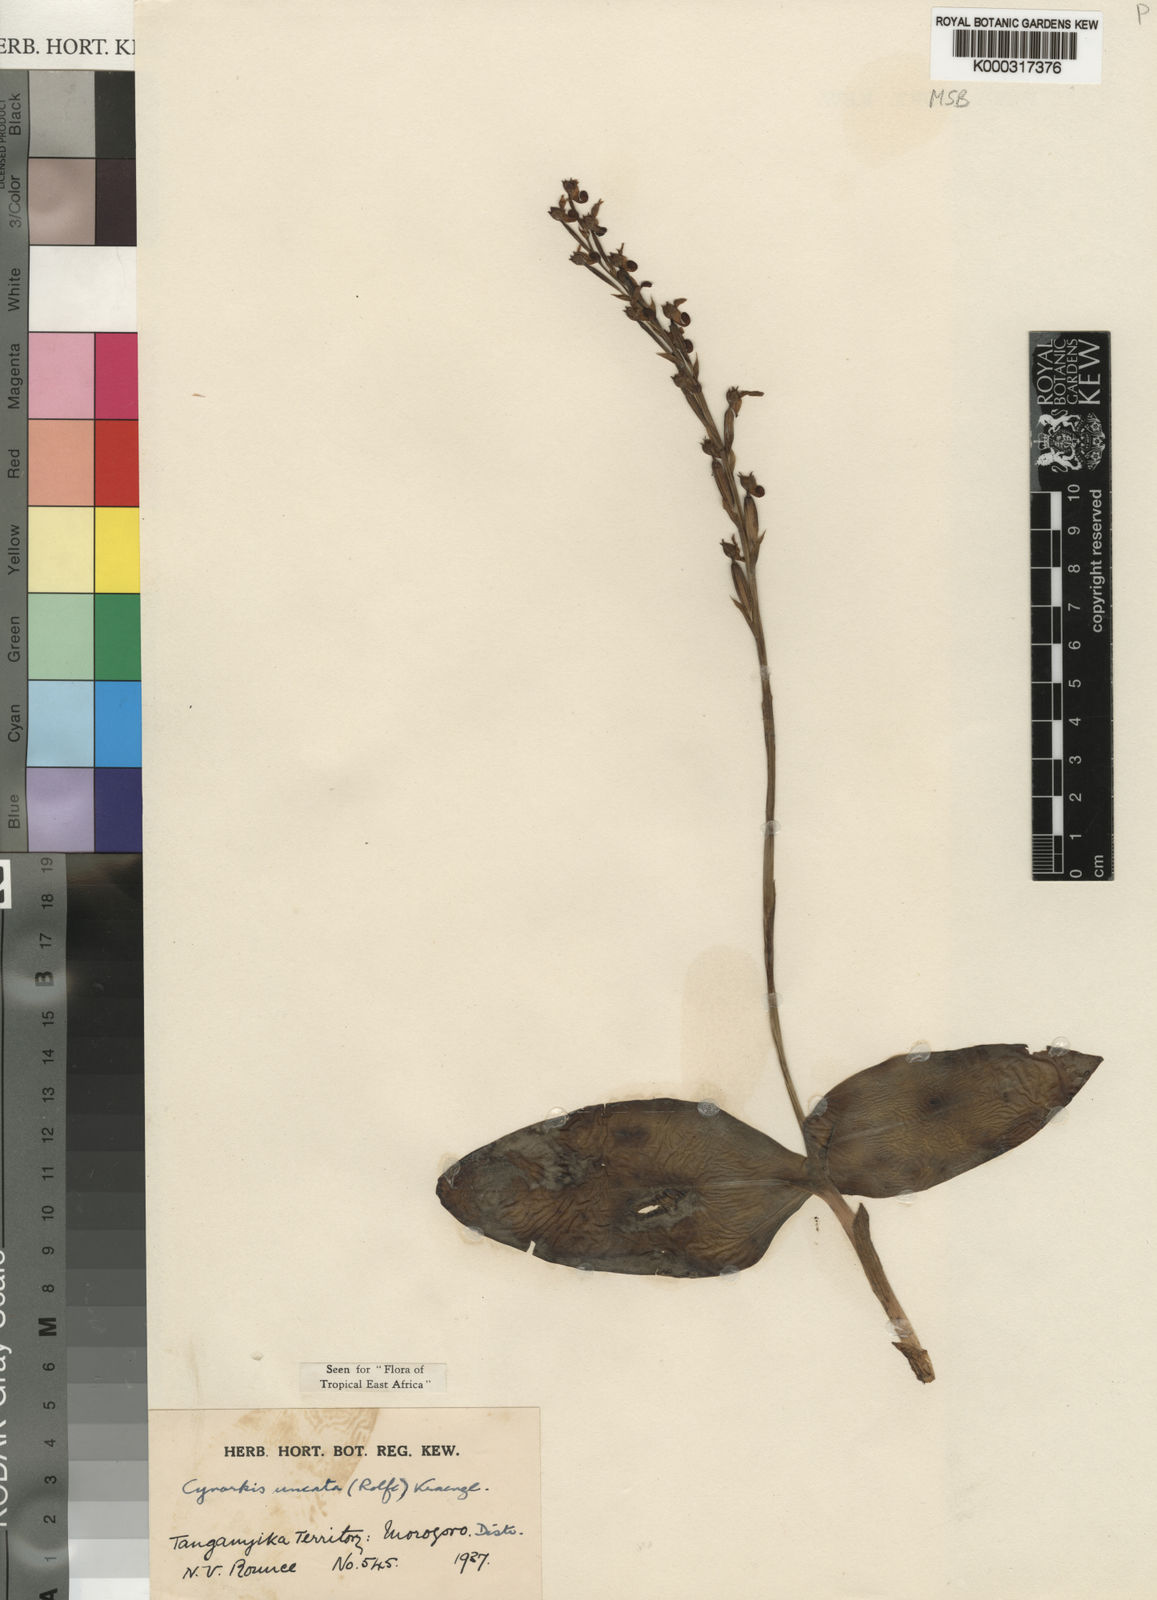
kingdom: Plantae
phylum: Tracheophyta
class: Liliopsida
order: Asparagales
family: Orchidaceae
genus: Cynorkis
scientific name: Cynorkis uncata
